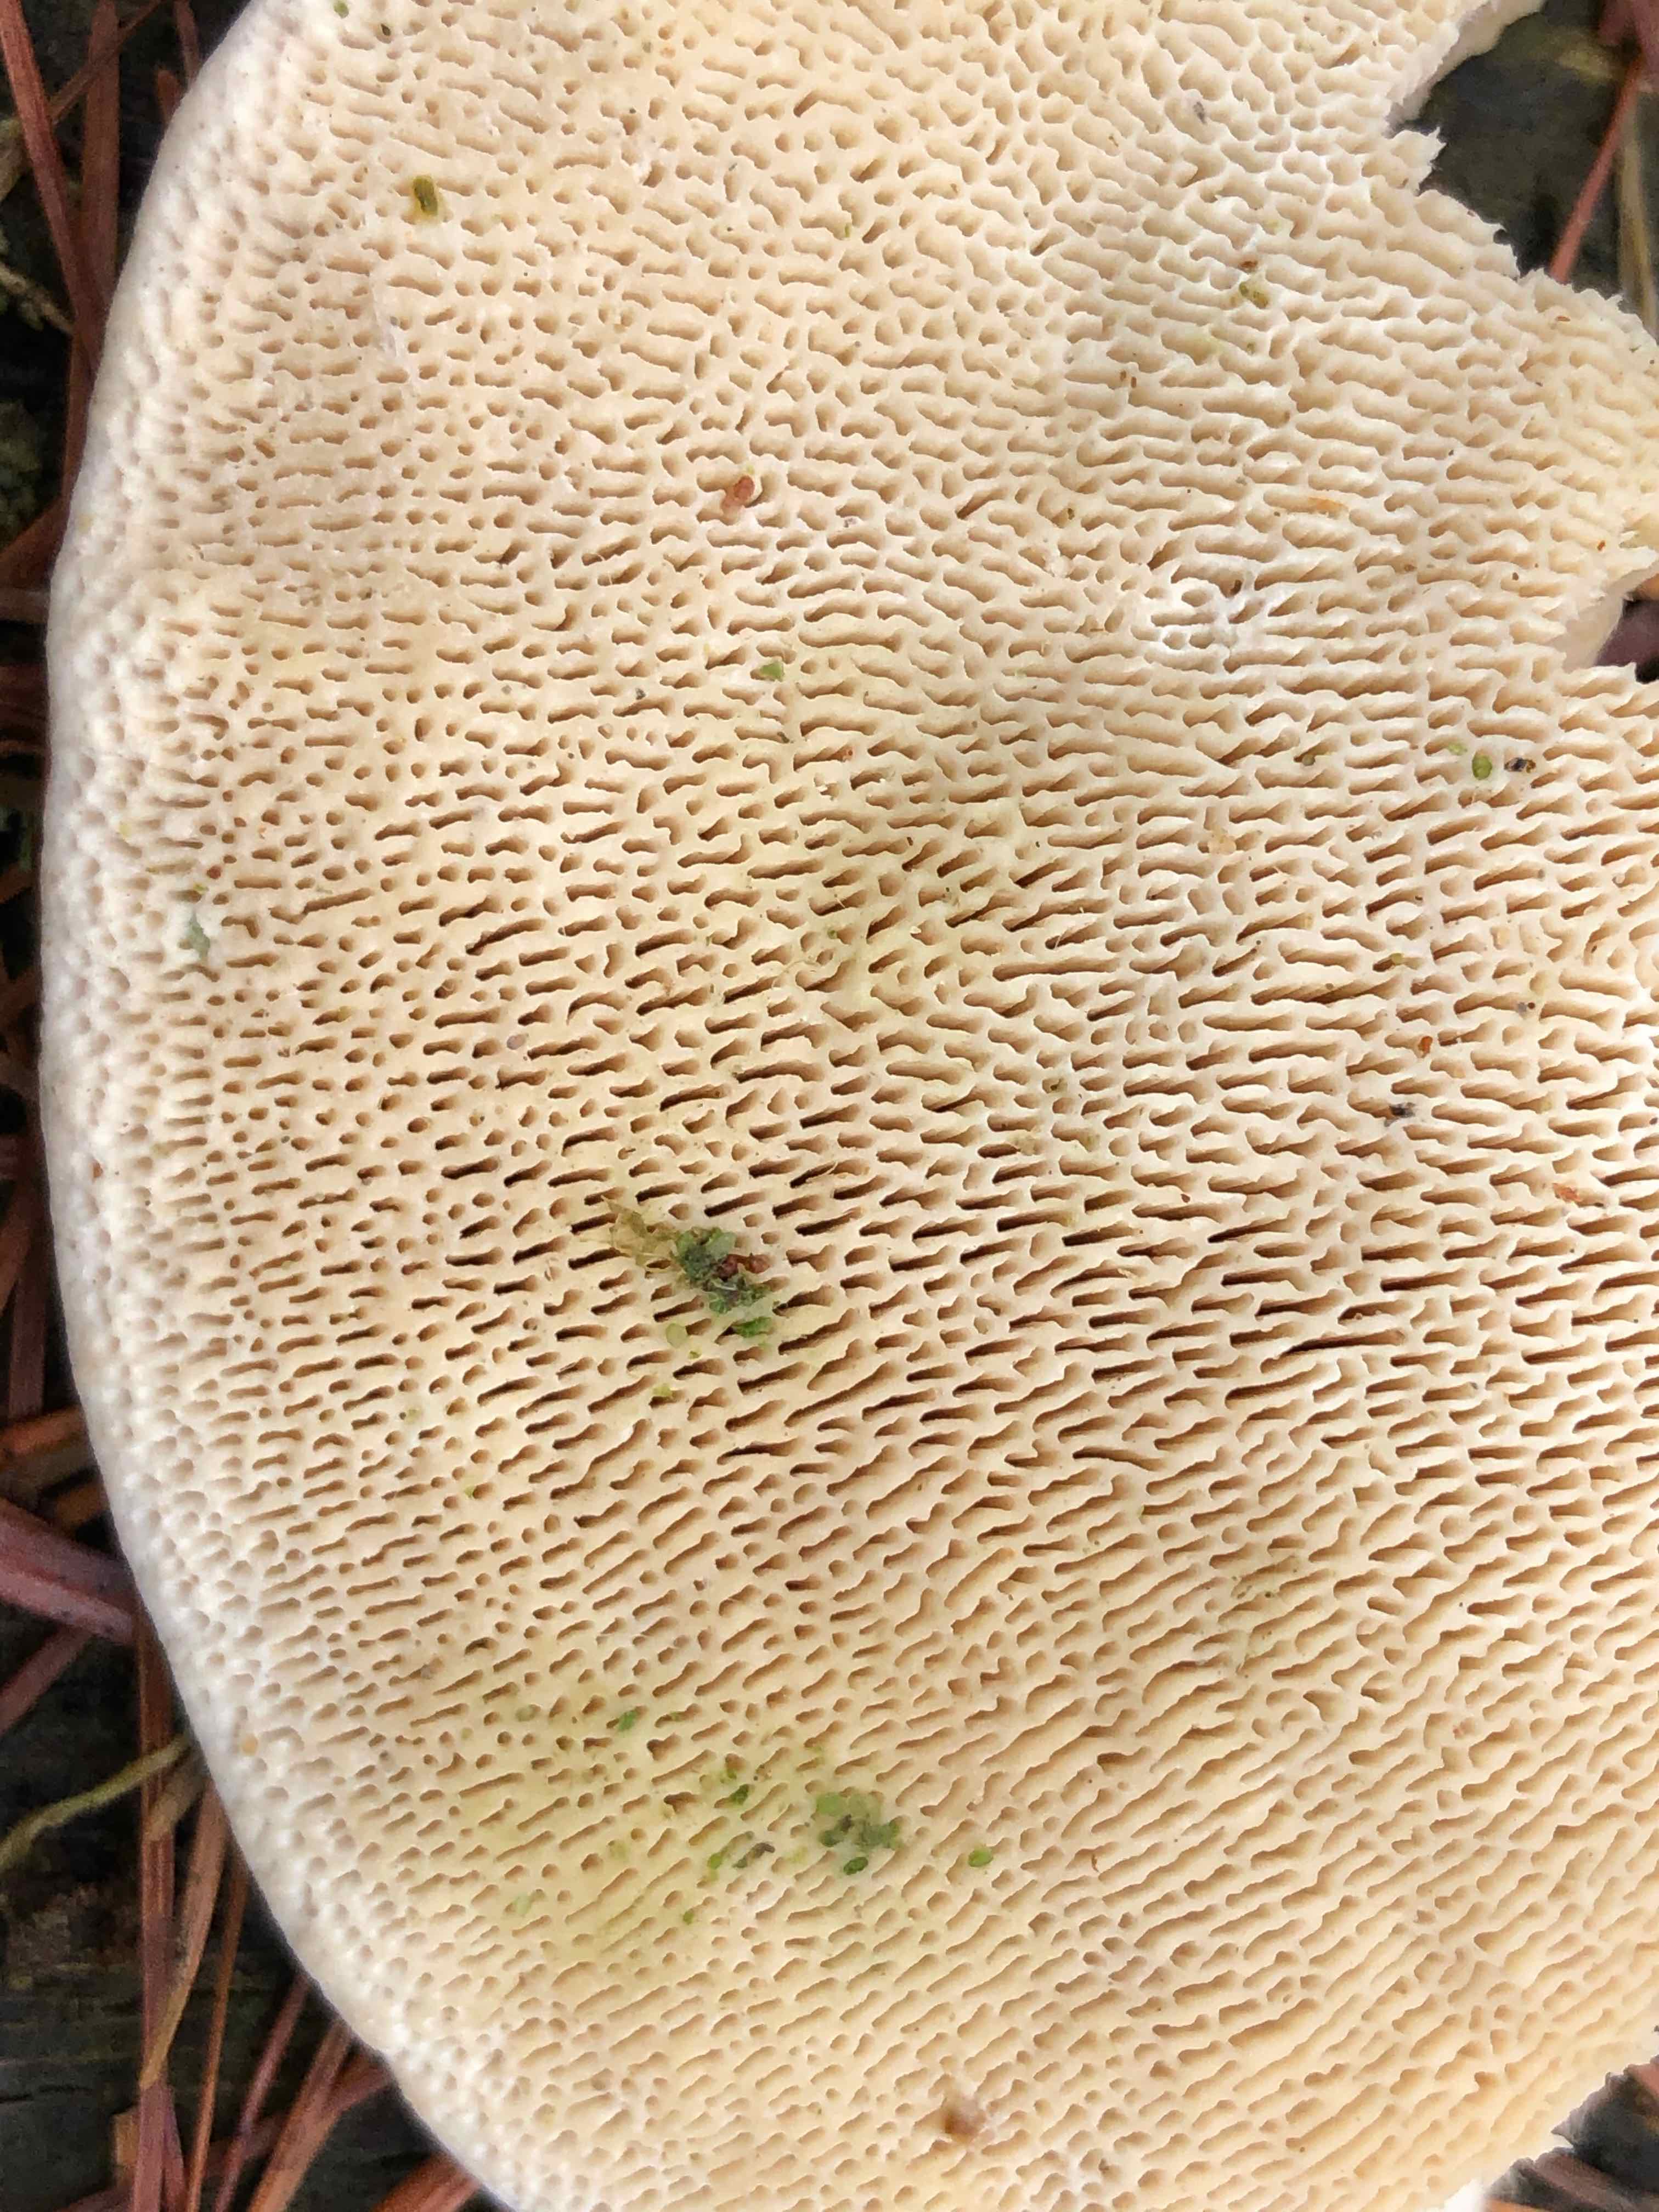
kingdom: Fungi
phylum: Basidiomycota
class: Agaricomycetes
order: Polyporales
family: Polyporaceae
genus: Trametes
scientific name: Trametes gibbosa
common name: puklet læderporesvamp
